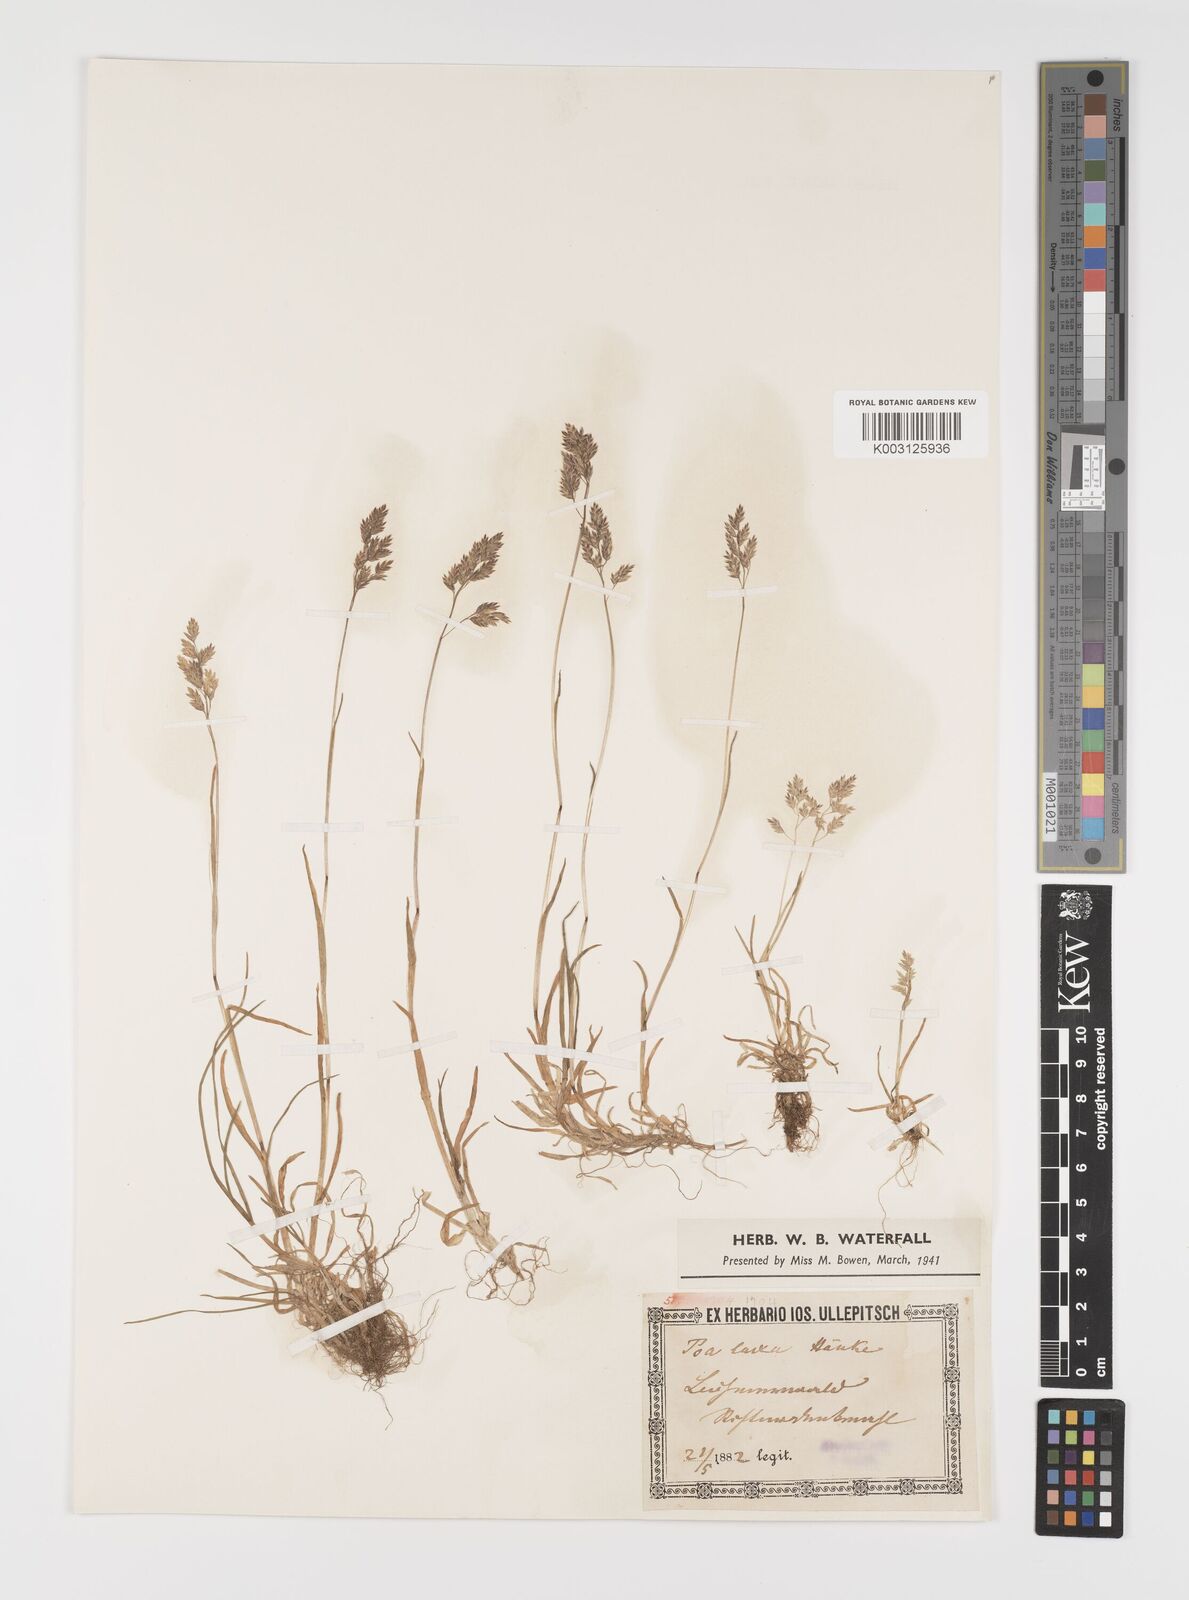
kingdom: Plantae
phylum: Tracheophyta
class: Liliopsida
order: Poales
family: Poaceae
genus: Poa
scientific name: Poa laxa
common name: Lax bluegrass
